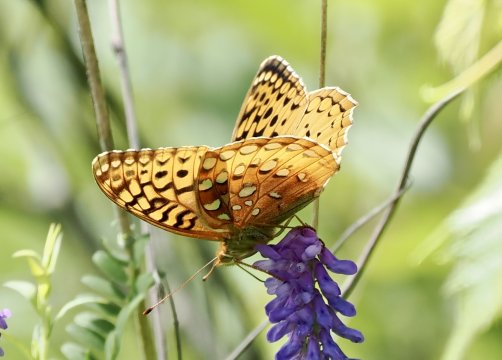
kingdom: Animalia
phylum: Arthropoda
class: Insecta
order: Lepidoptera
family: Nymphalidae
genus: Speyeria
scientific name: Speyeria aphrodite
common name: Aphrodite Fritillary
